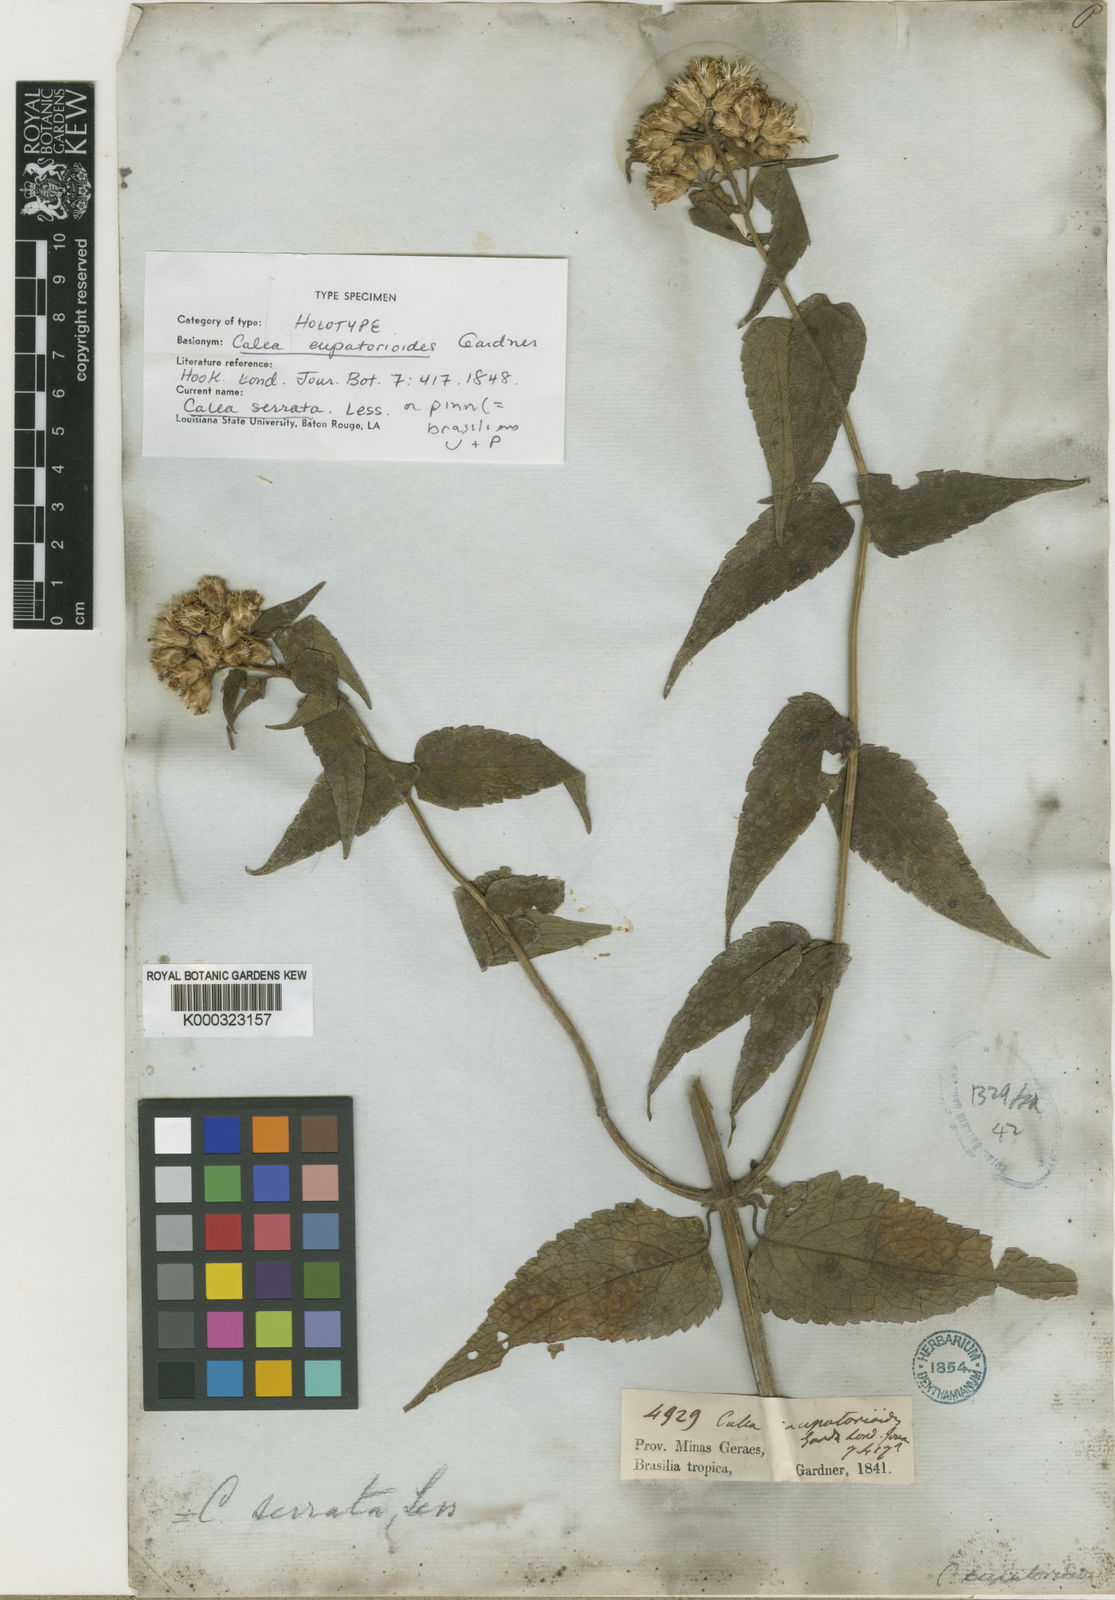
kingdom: Plantae
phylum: Tracheophyta
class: Magnoliopsida
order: Asterales
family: Asteraceae
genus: Calea
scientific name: Calea serrata
